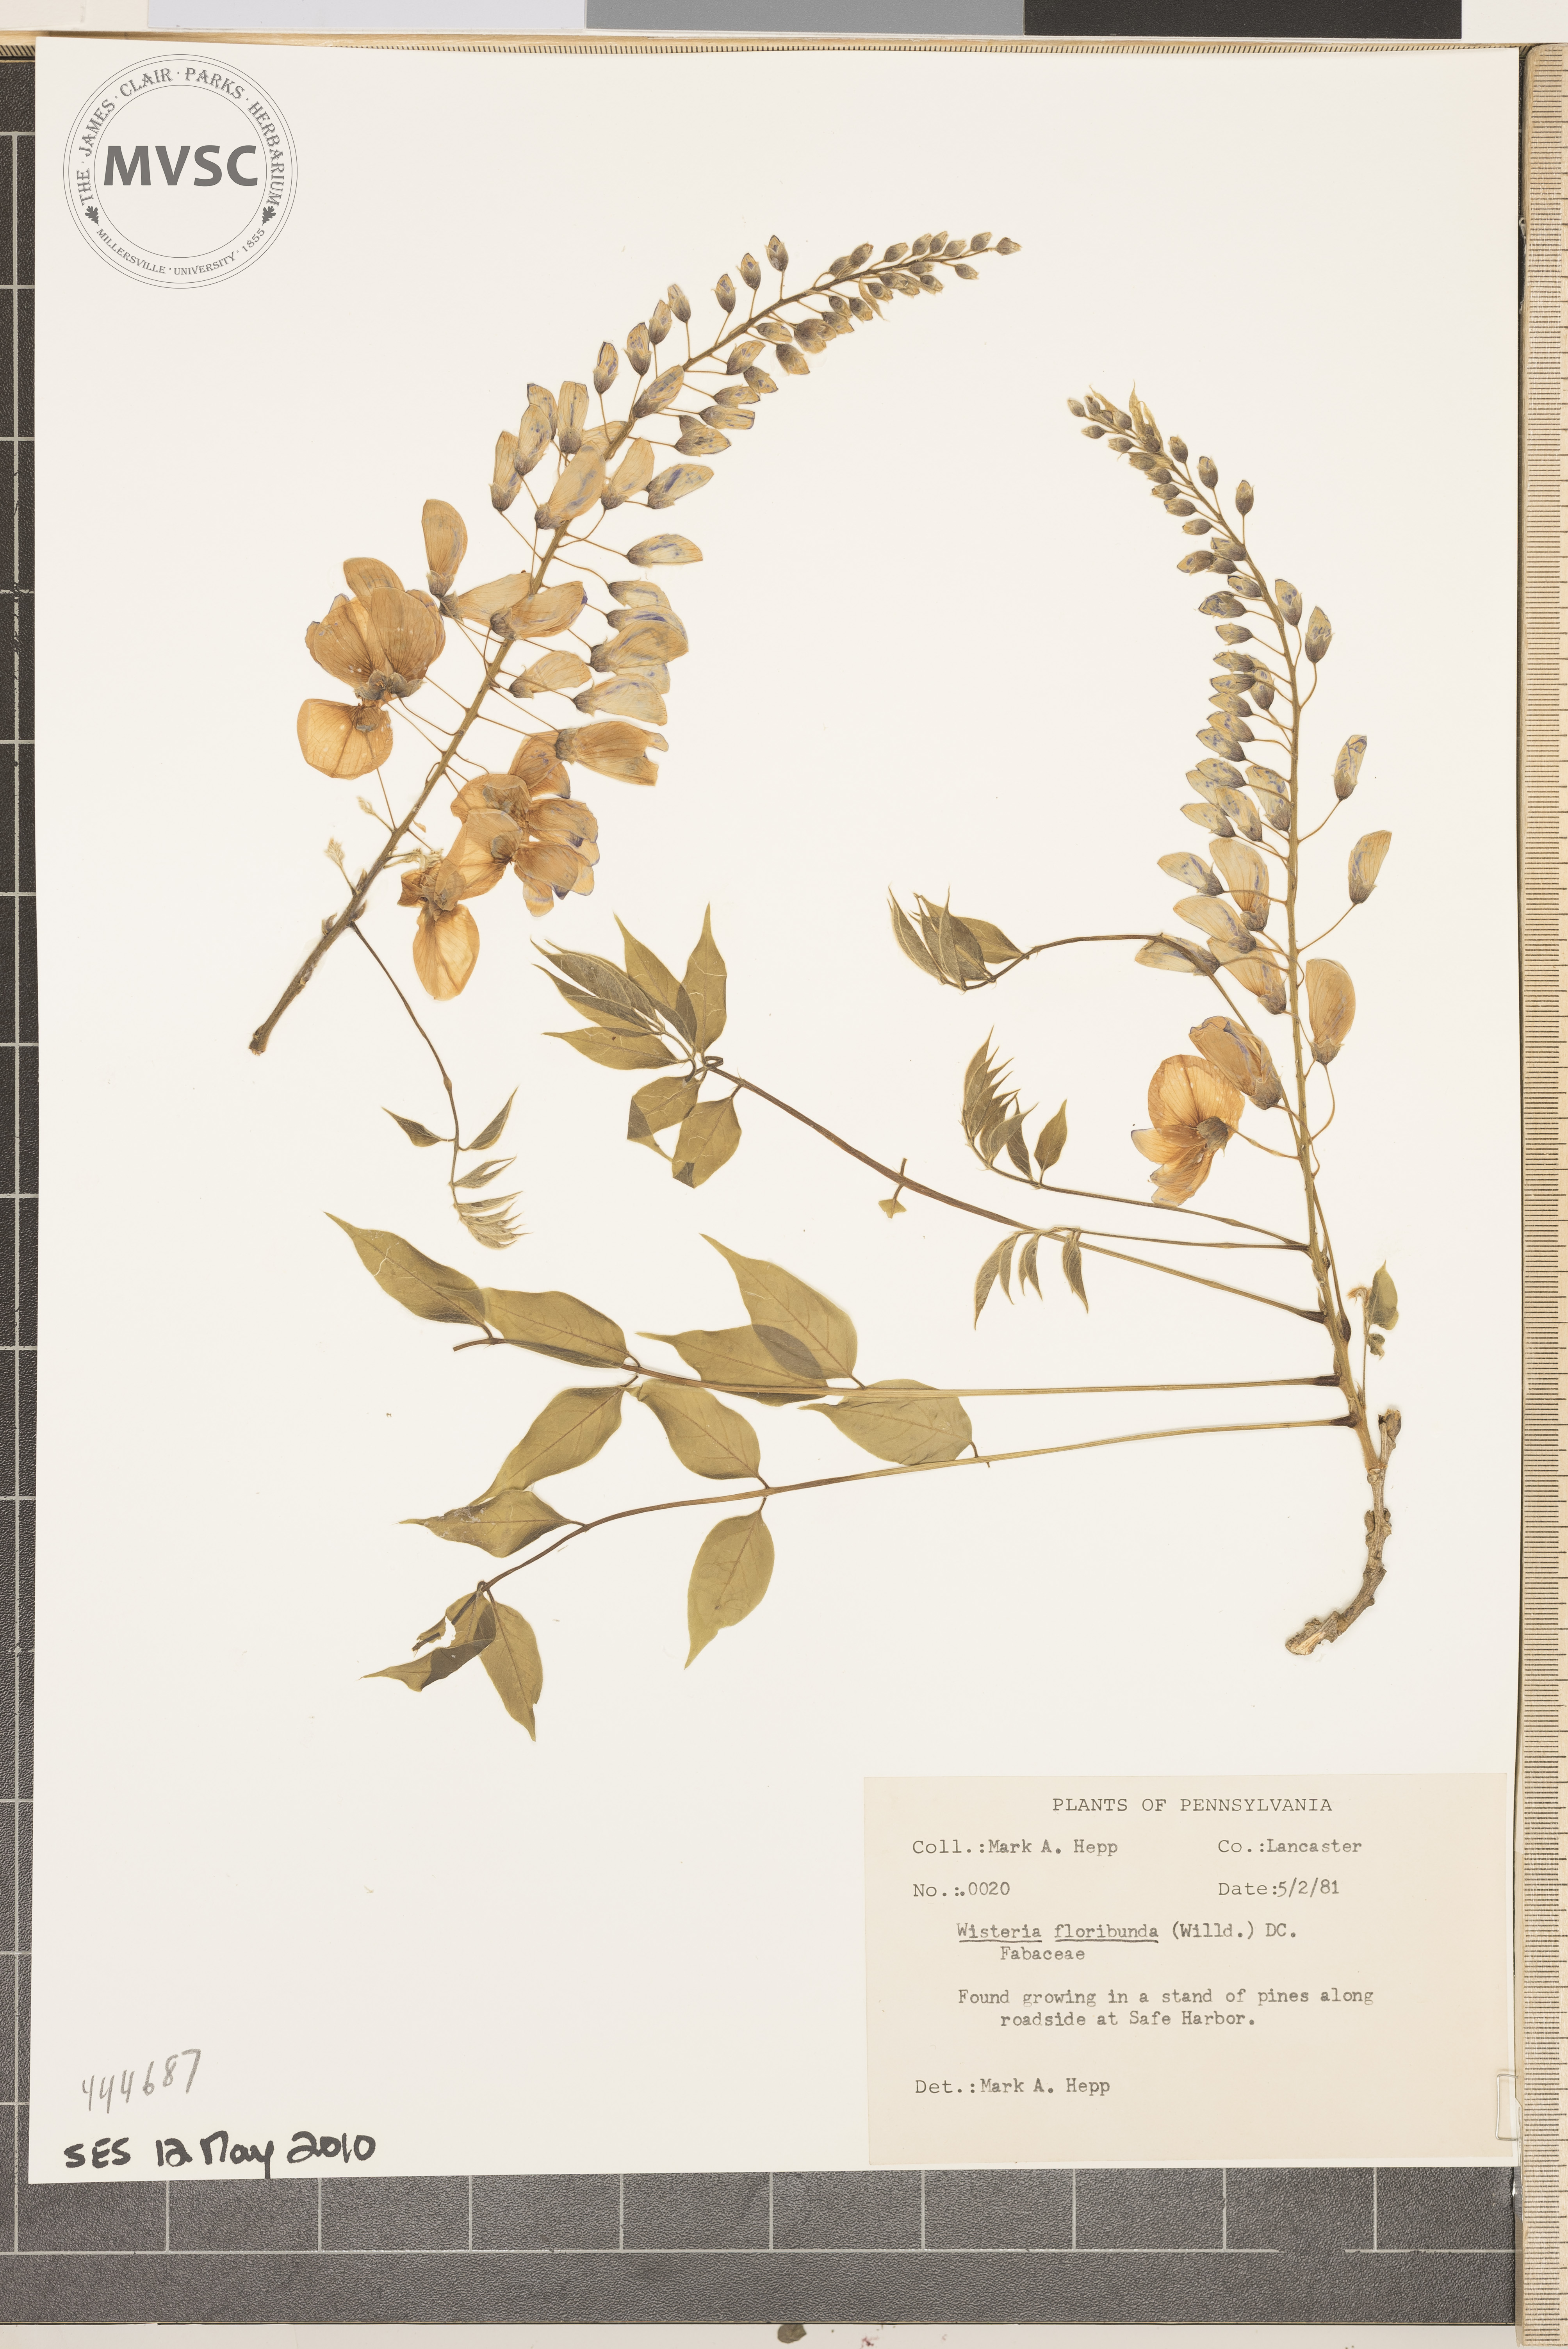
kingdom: Plantae
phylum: Tracheophyta
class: Magnoliopsida
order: Fabales
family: Fabaceae
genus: Wisteria
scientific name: Wisteria floribunda
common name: Japanese wisteria
